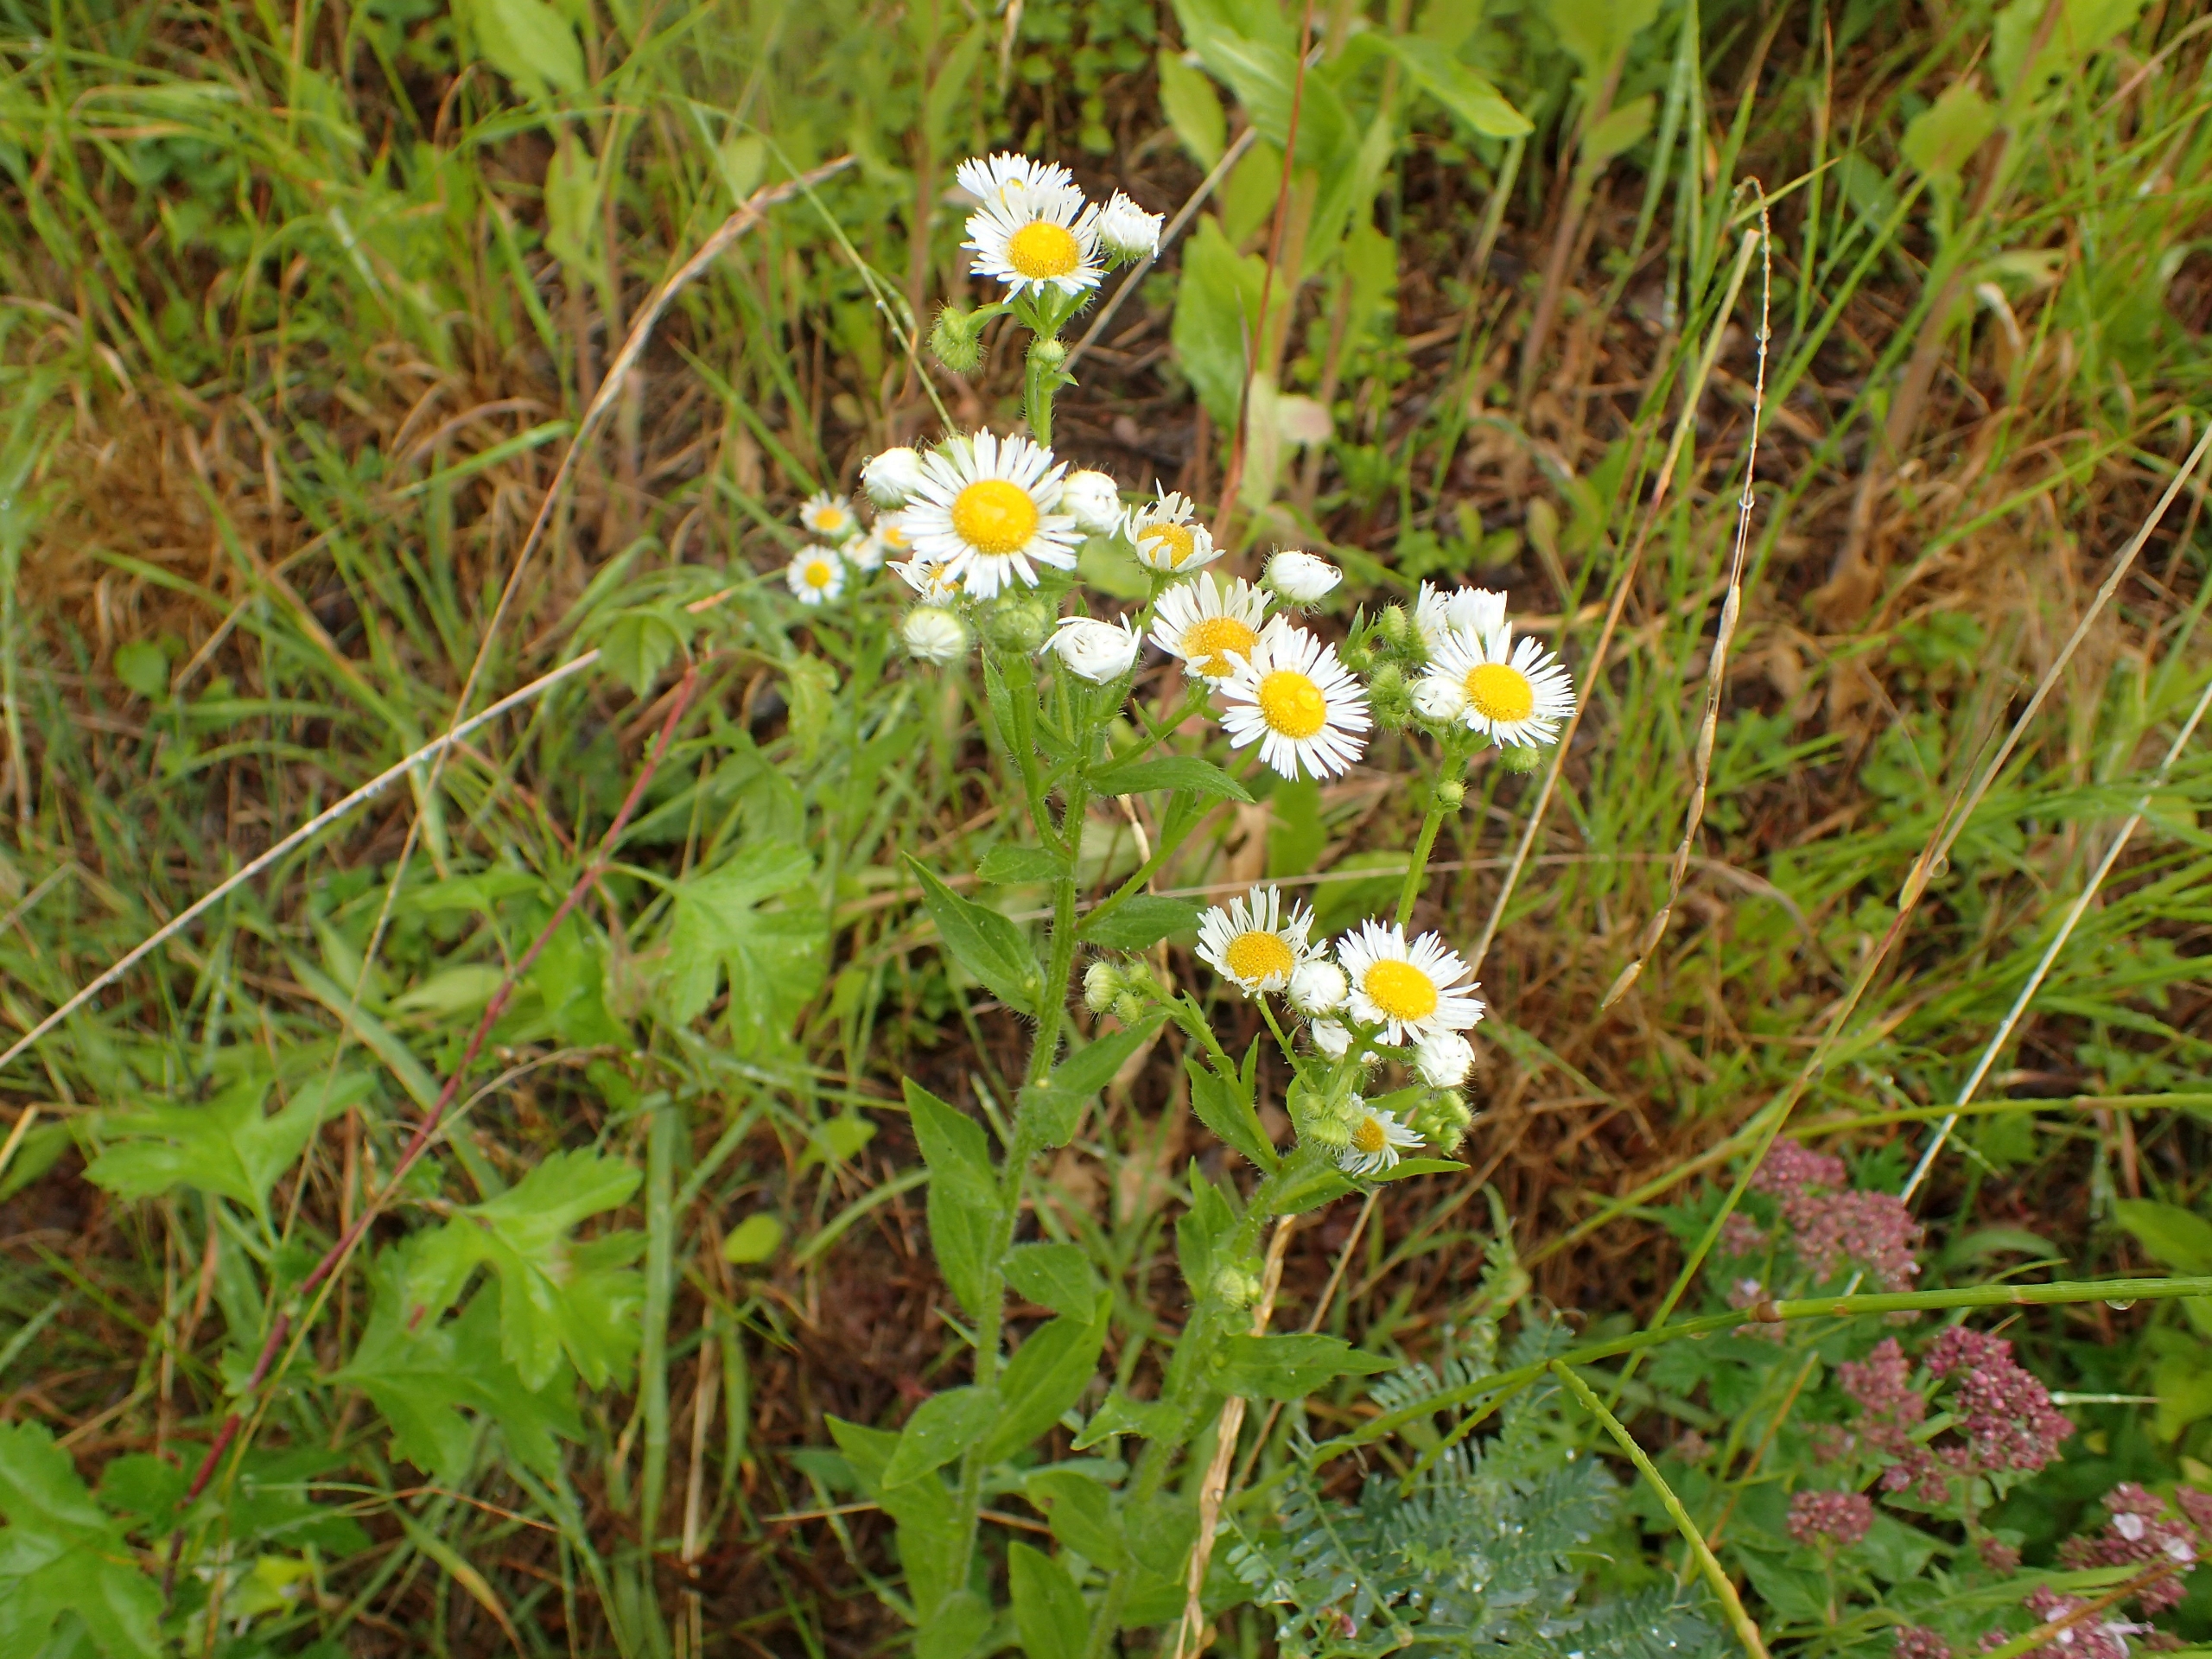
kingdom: Plantae
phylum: Tracheophyta
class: Magnoliopsida
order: Asterales
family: Asteraceae
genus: Erigeron
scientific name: Erigeron annuus
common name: Smalstråle
